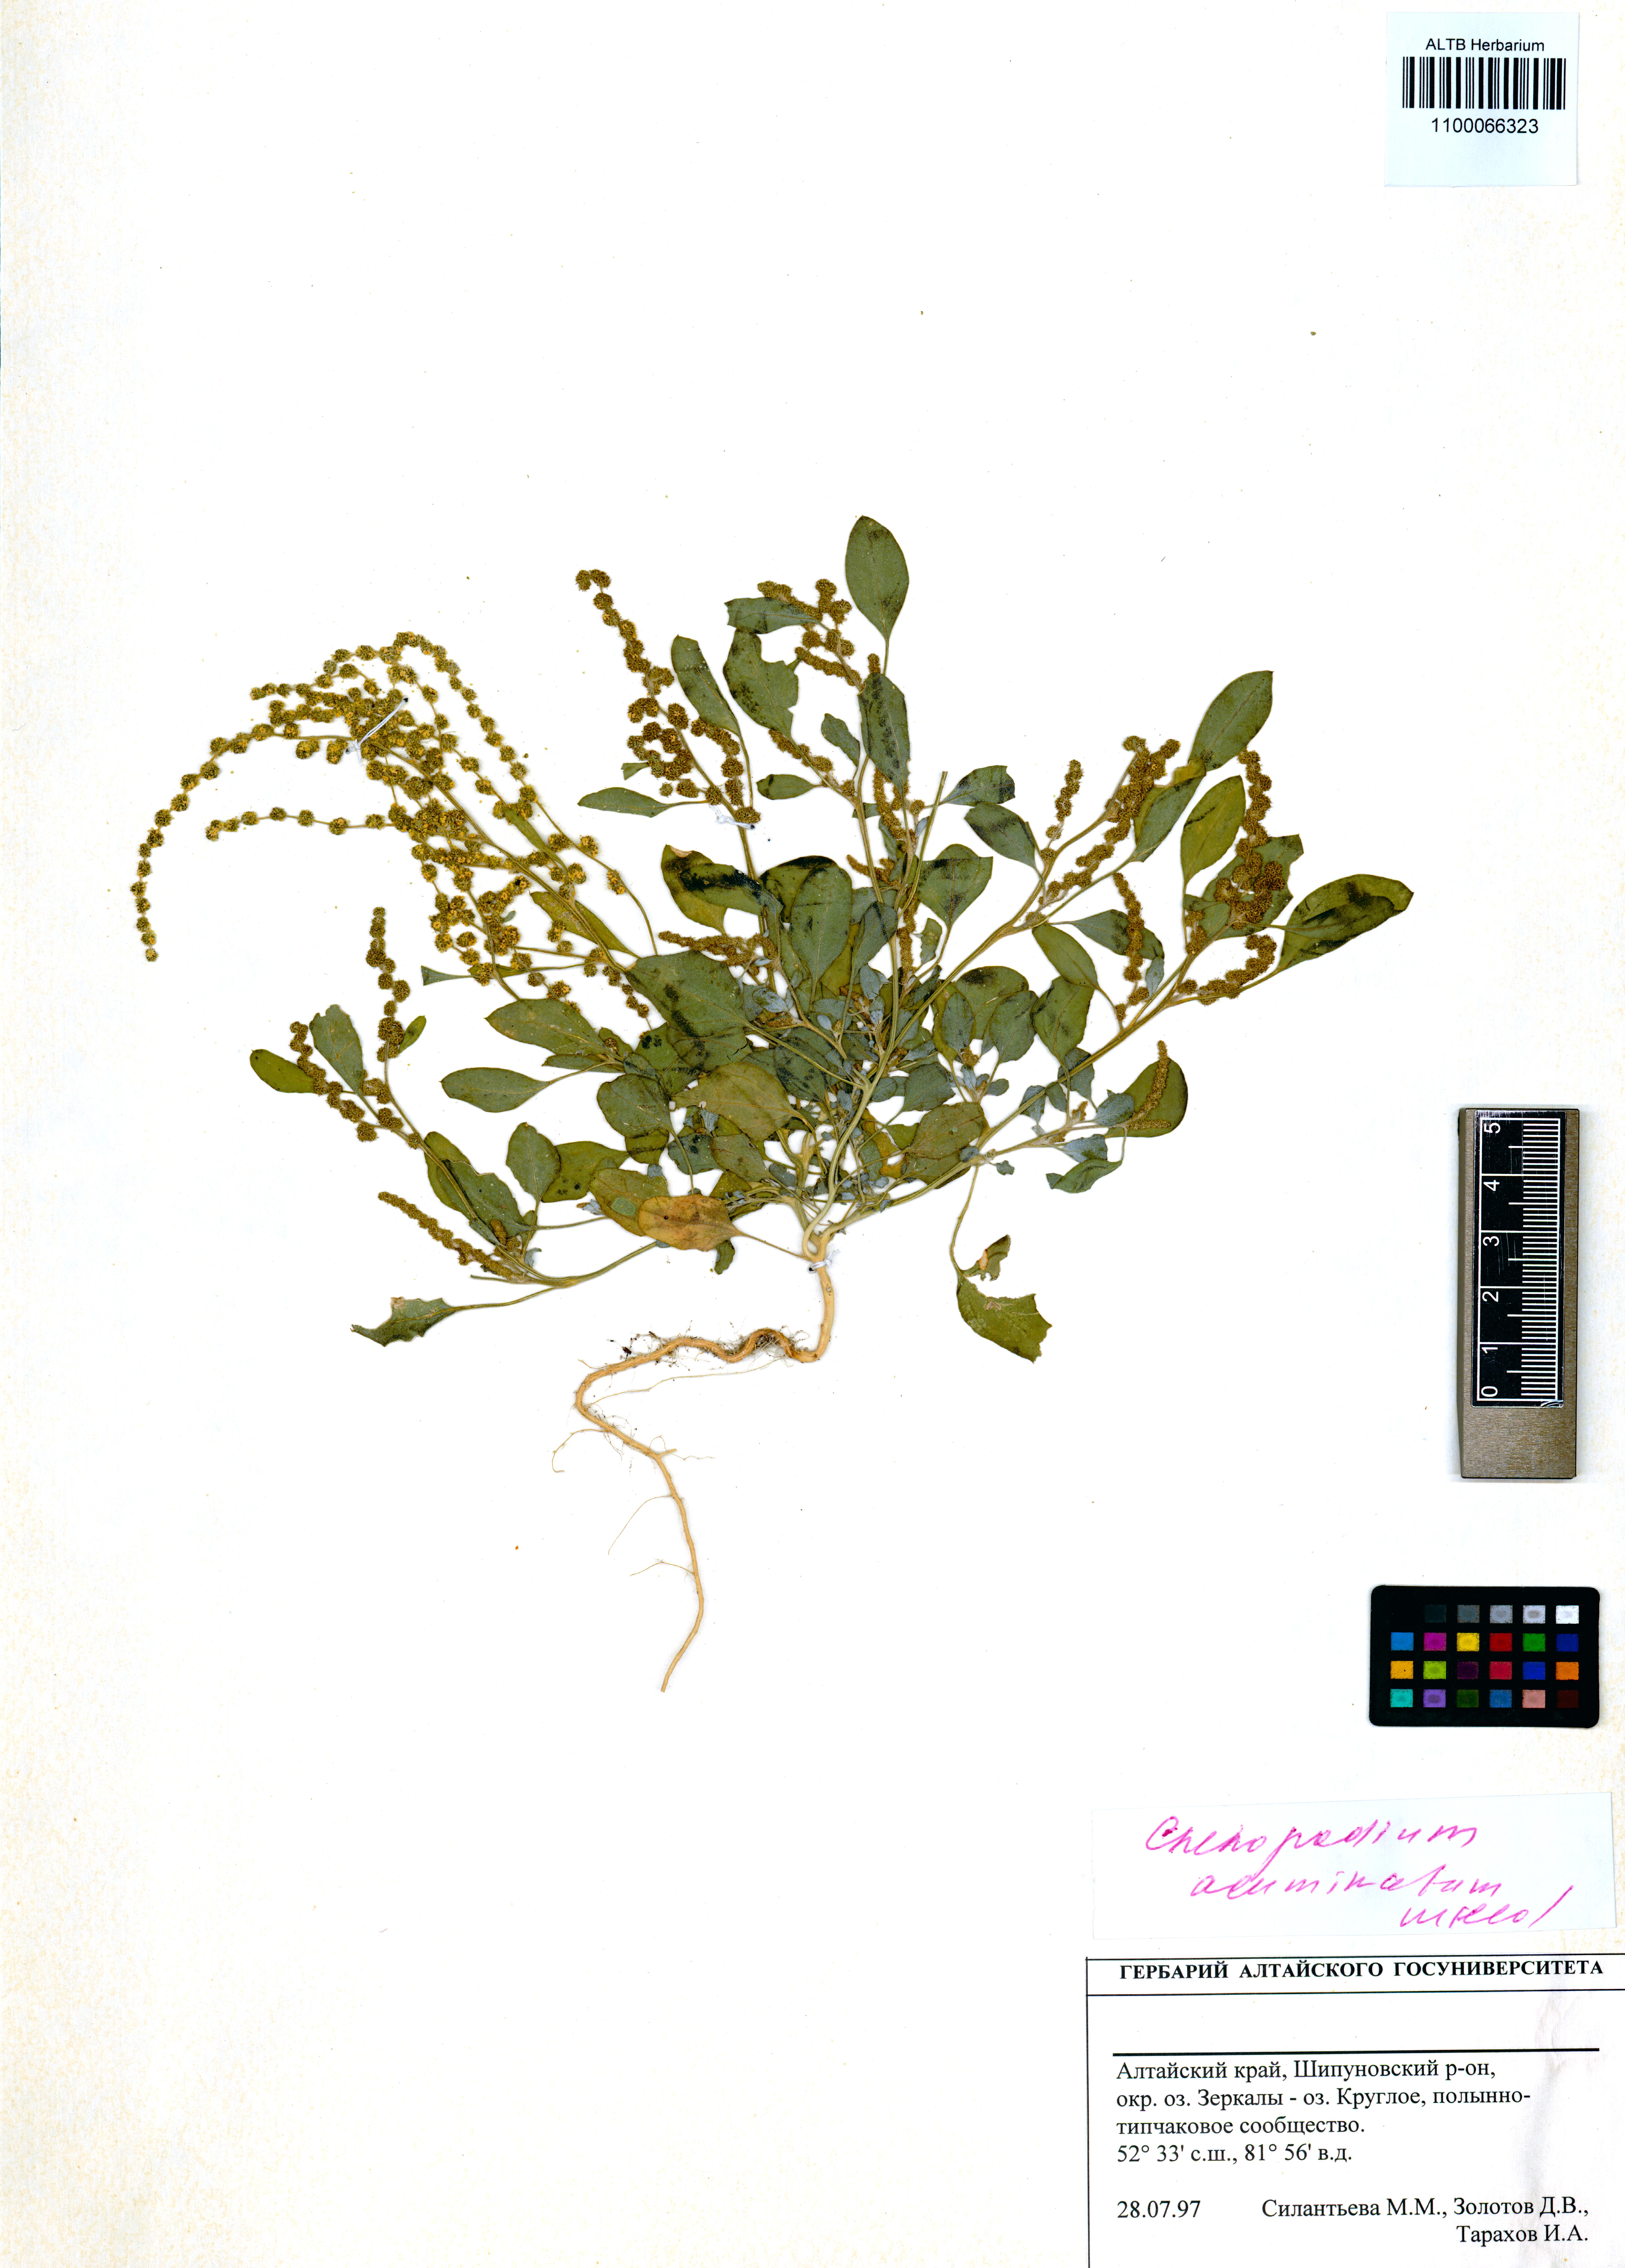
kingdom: Plantae
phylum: Tracheophyta
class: Magnoliopsida
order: Caryophyllales
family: Amaranthaceae
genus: Chenopodium
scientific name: Chenopodium acuminatum
